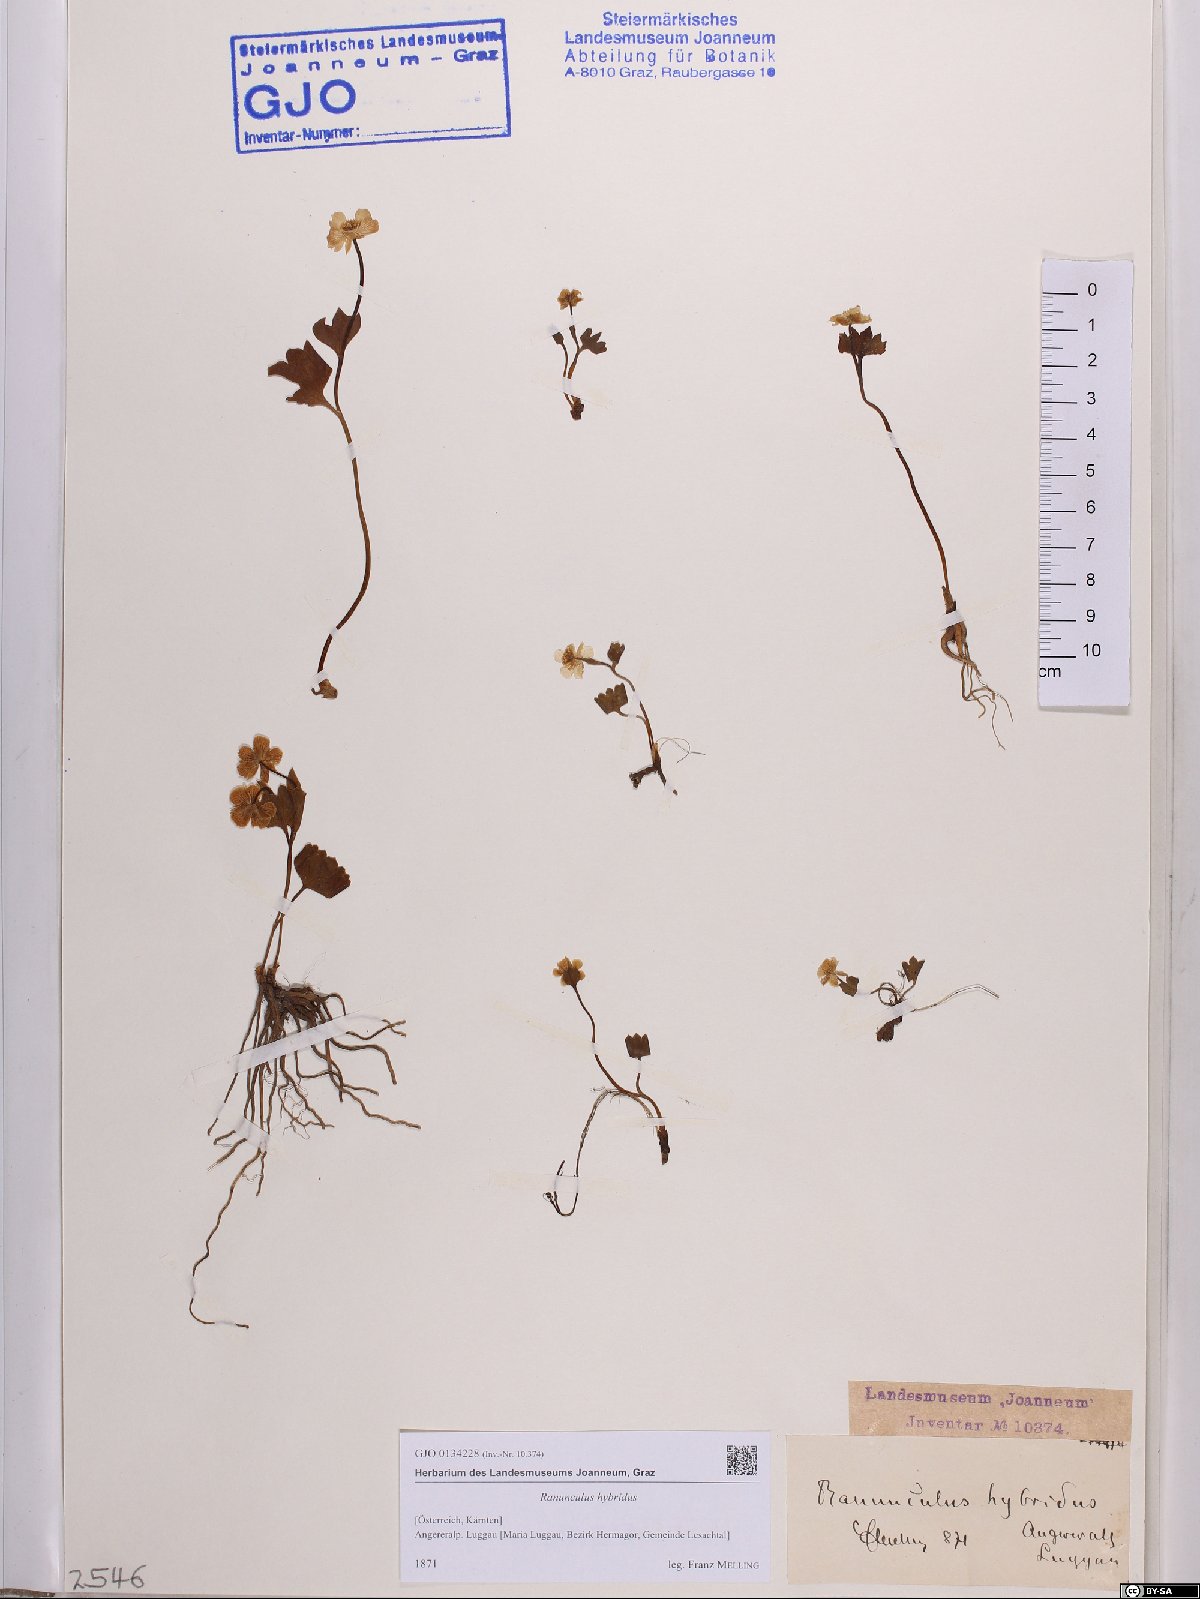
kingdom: Plantae
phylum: Tracheophyta
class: Magnoliopsida
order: Ranunculales
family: Ranunculaceae
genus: Ranunculus
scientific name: Ranunculus hybridus
